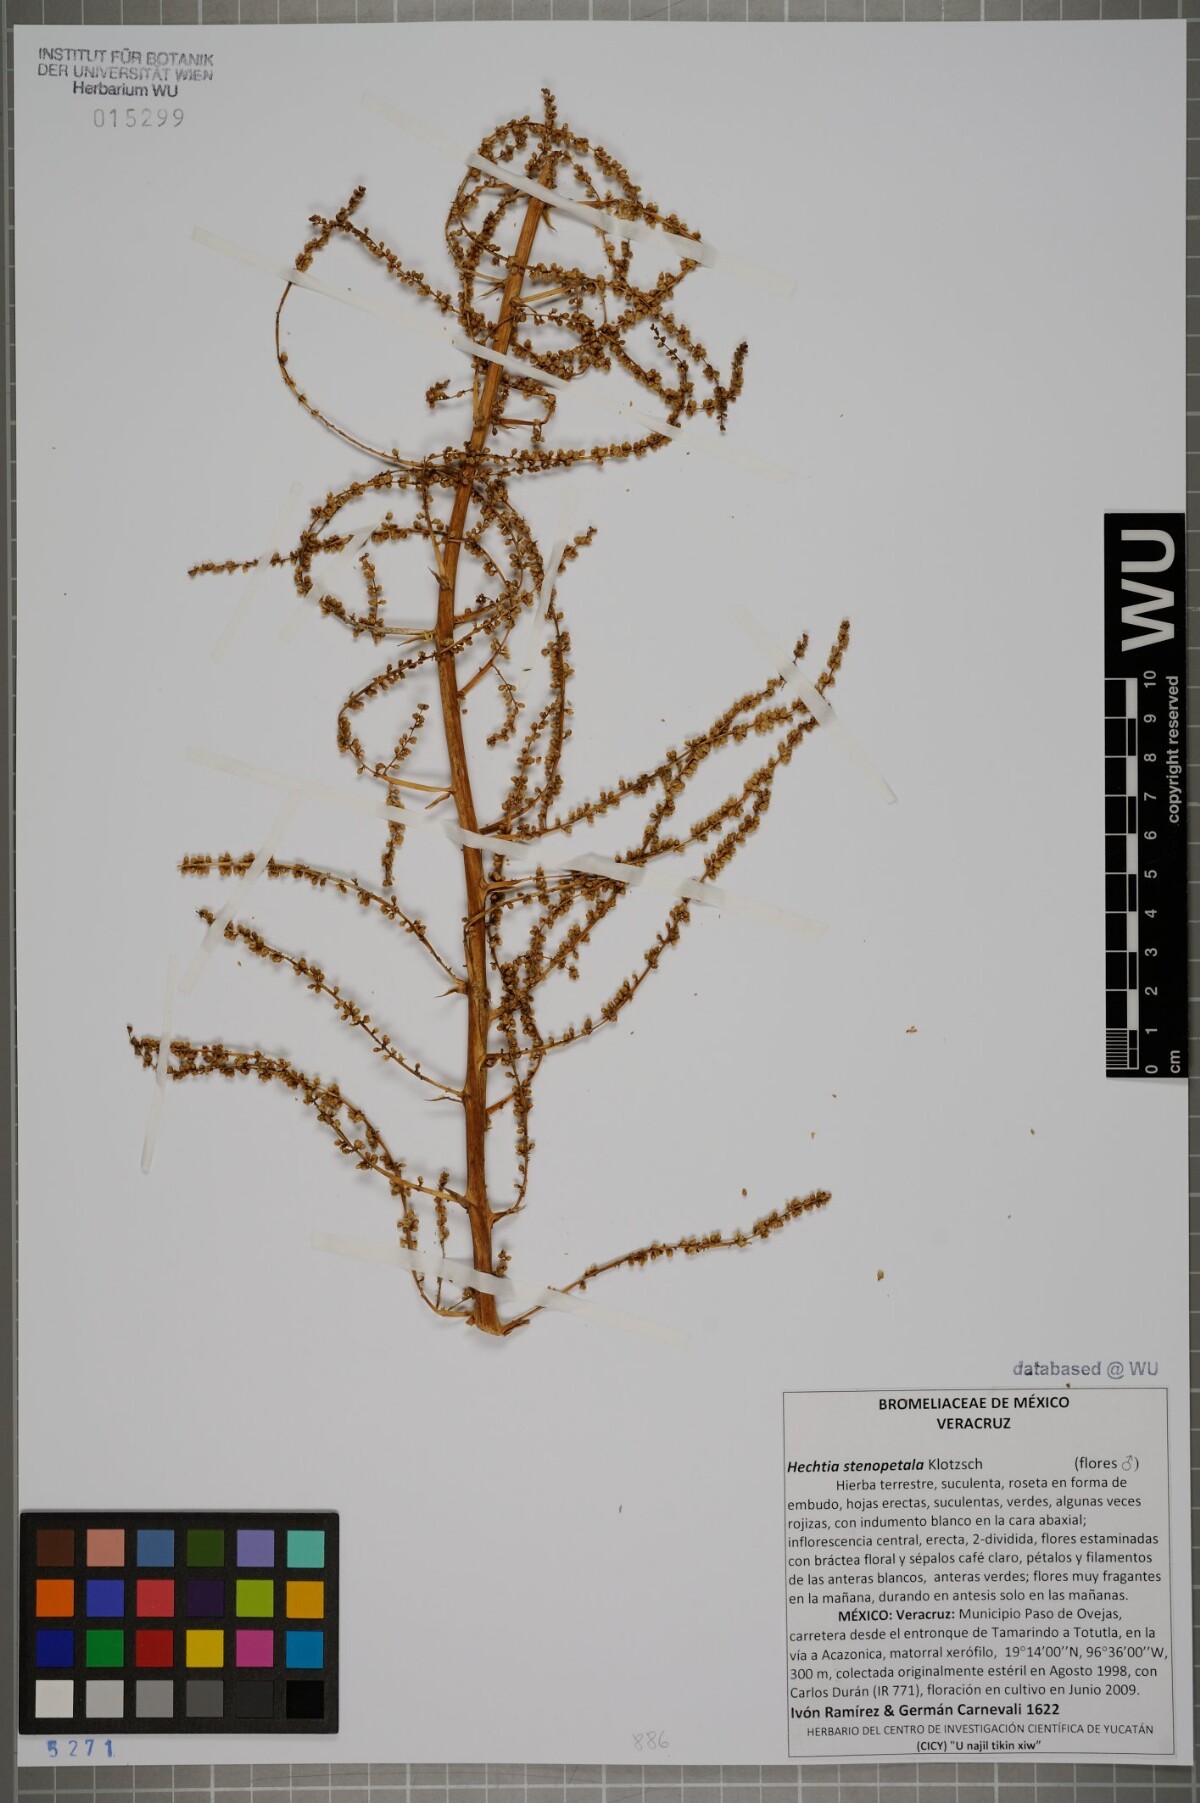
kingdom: Plantae
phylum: Tracheophyta
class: Liliopsida
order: Poales
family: Bromeliaceae
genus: Hechtia
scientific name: Hechtia stenopetala
